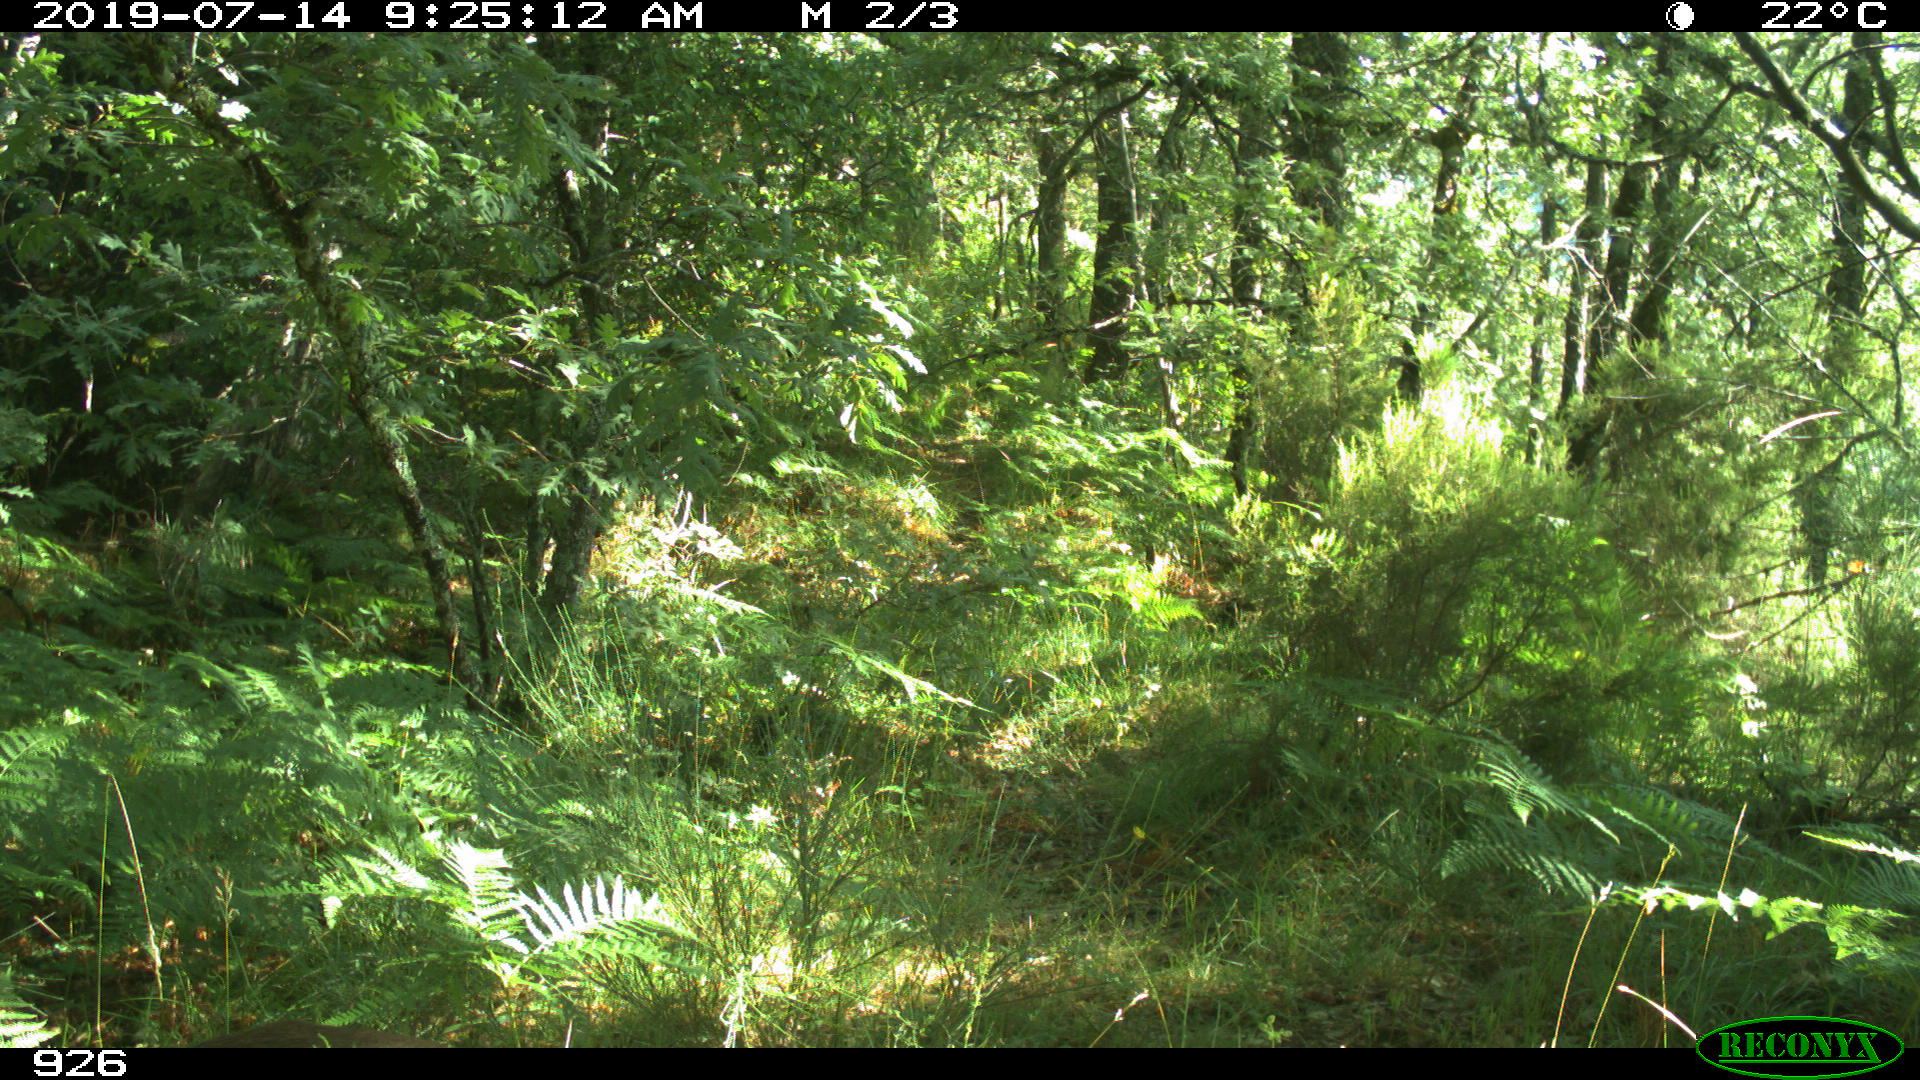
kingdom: Animalia
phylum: Chordata
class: Mammalia
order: Artiodactyla
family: Cervidae
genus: Capreolus
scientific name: Capreolus capreolus
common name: Western roe deer
